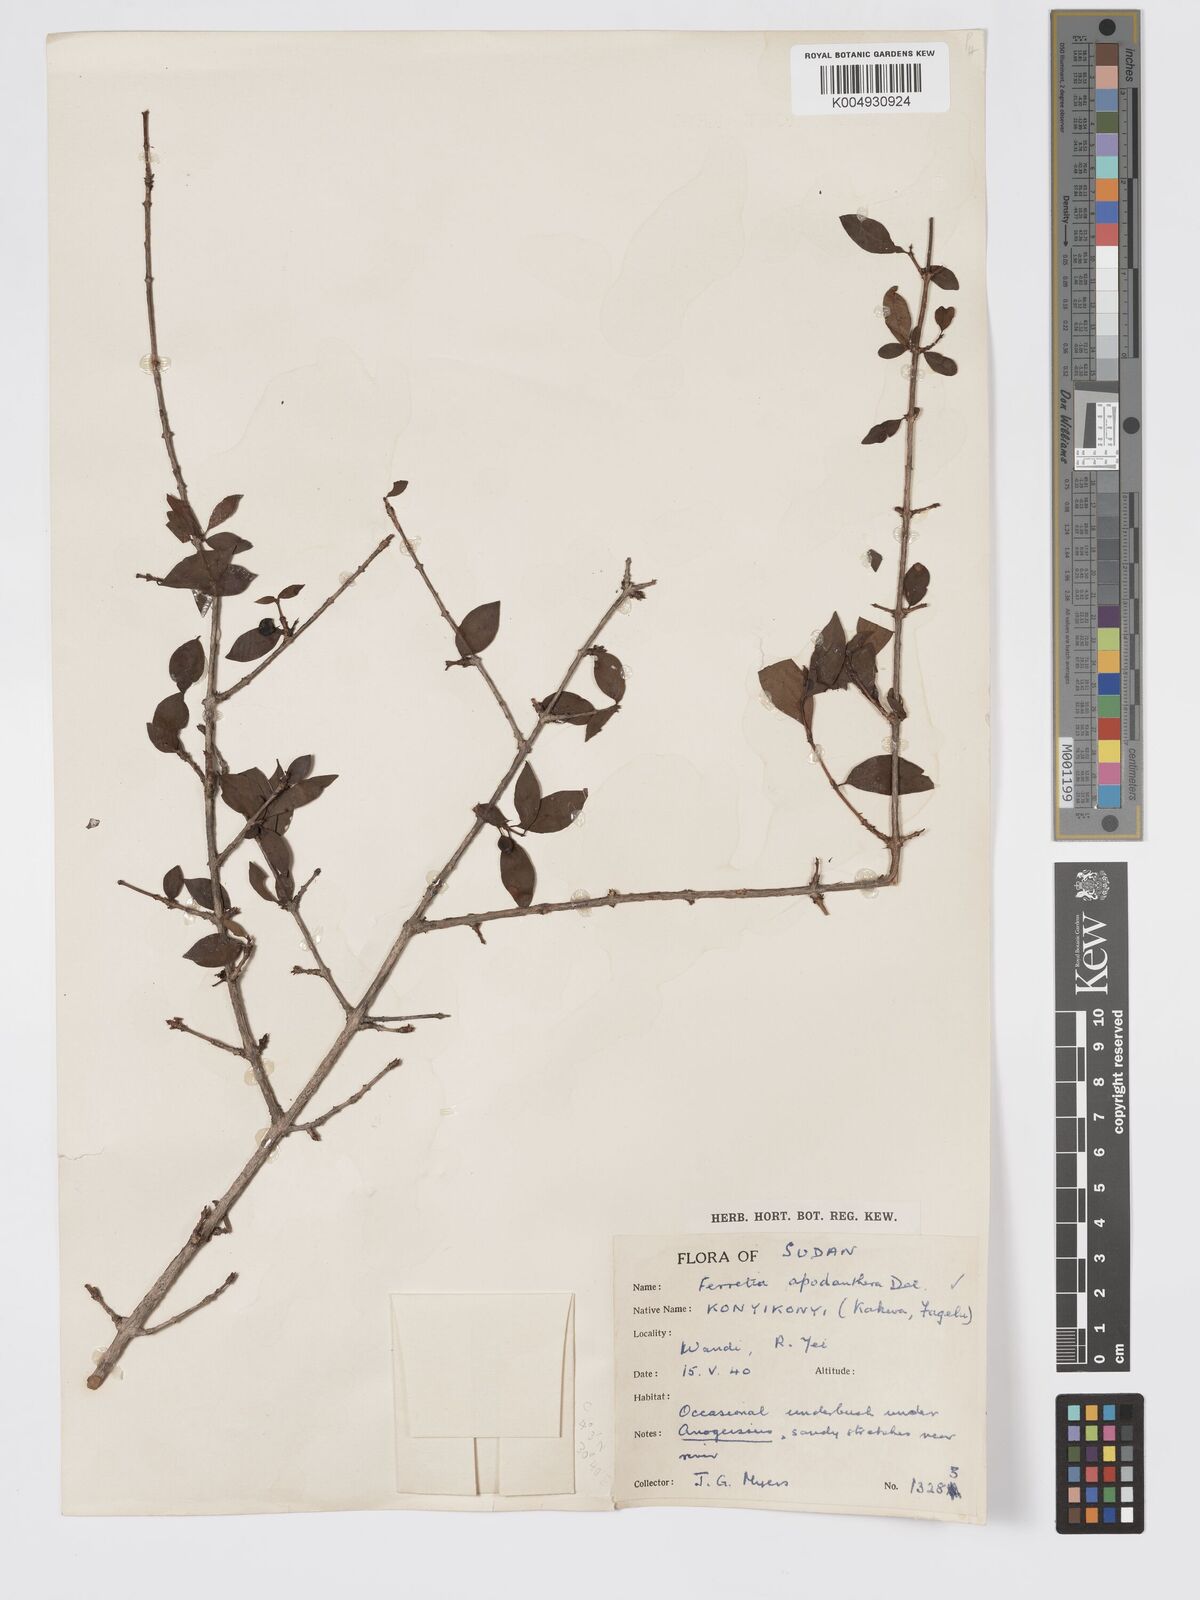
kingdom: Plantae
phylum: Tracheophyta
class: Magnoliopsida
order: Gentianales
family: Rubiaceae
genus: Feretia
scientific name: Feretia apodanthera
